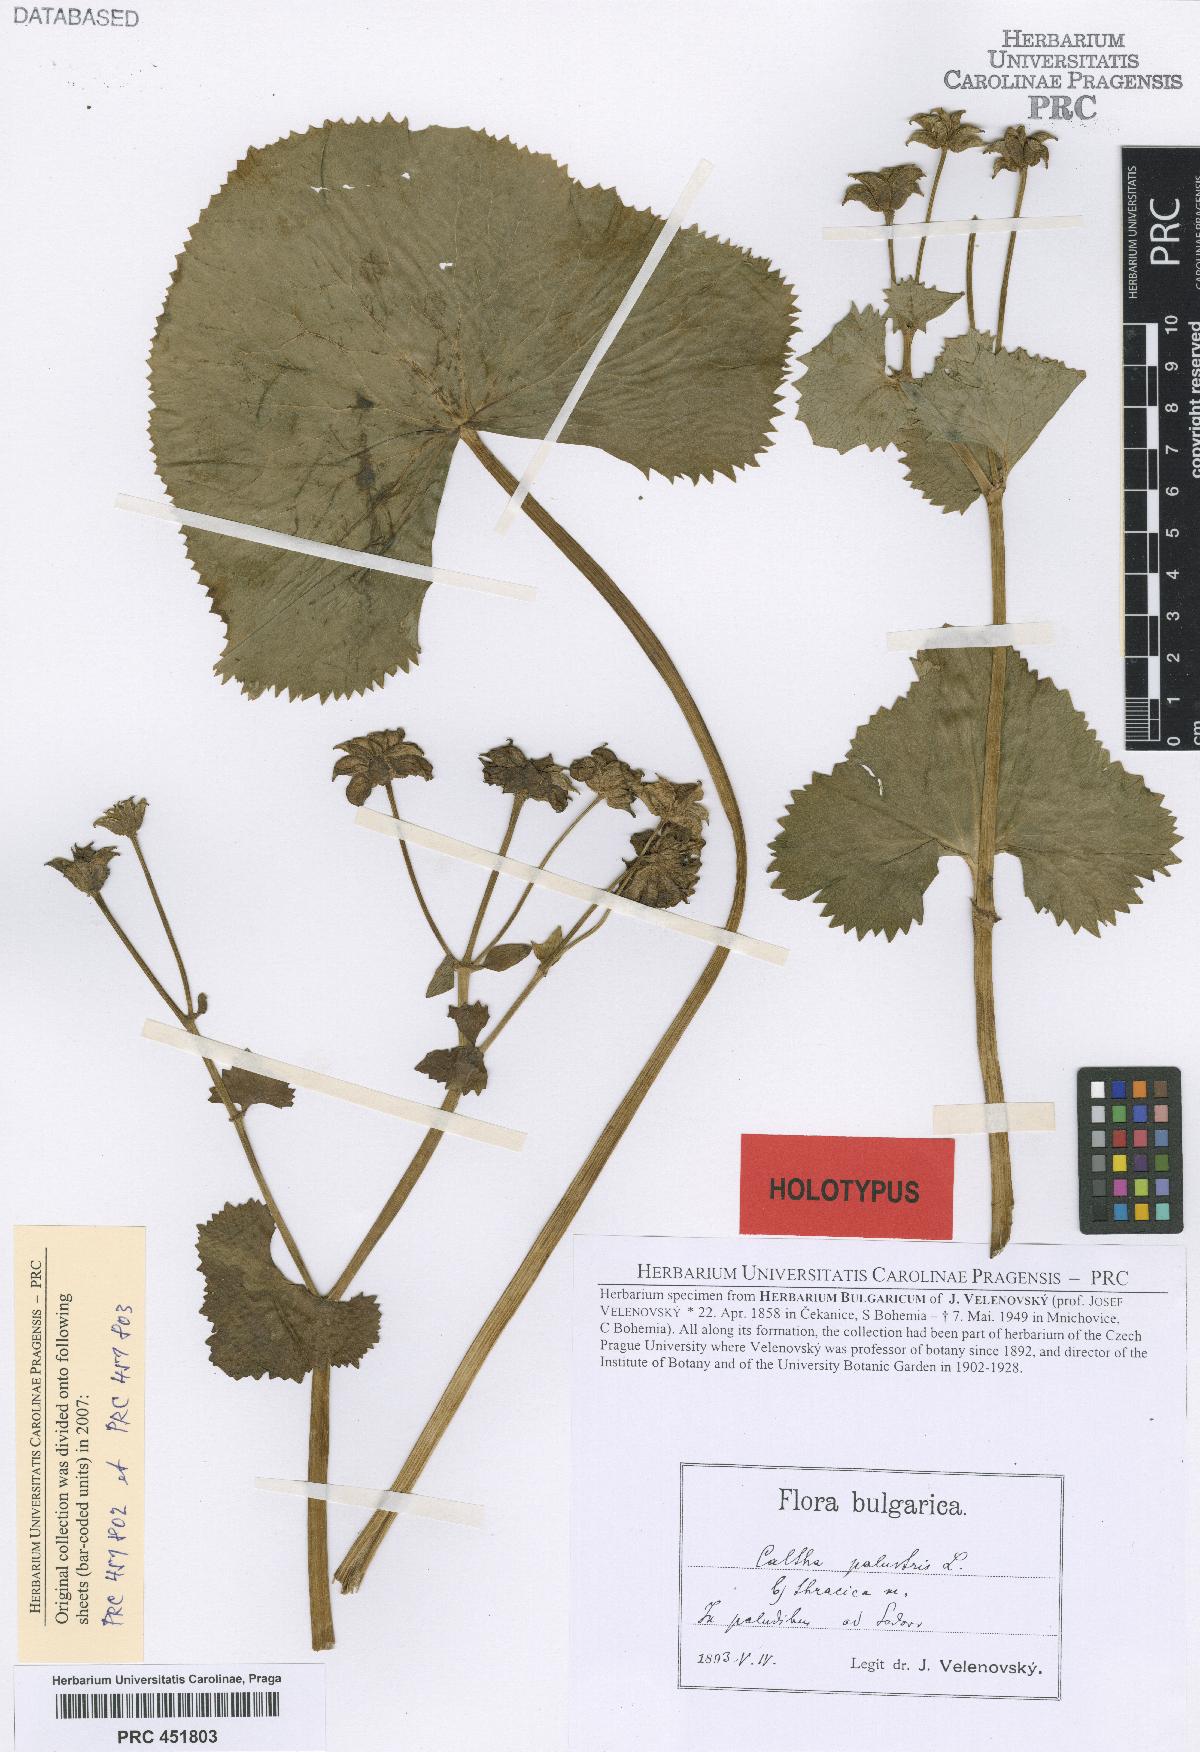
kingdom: Plantae
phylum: Tracheophyta
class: Magnoliopsida
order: Ranunculales
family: Ranunculaceae
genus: Caltha
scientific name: Caltha palustris
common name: Marsh marigold
